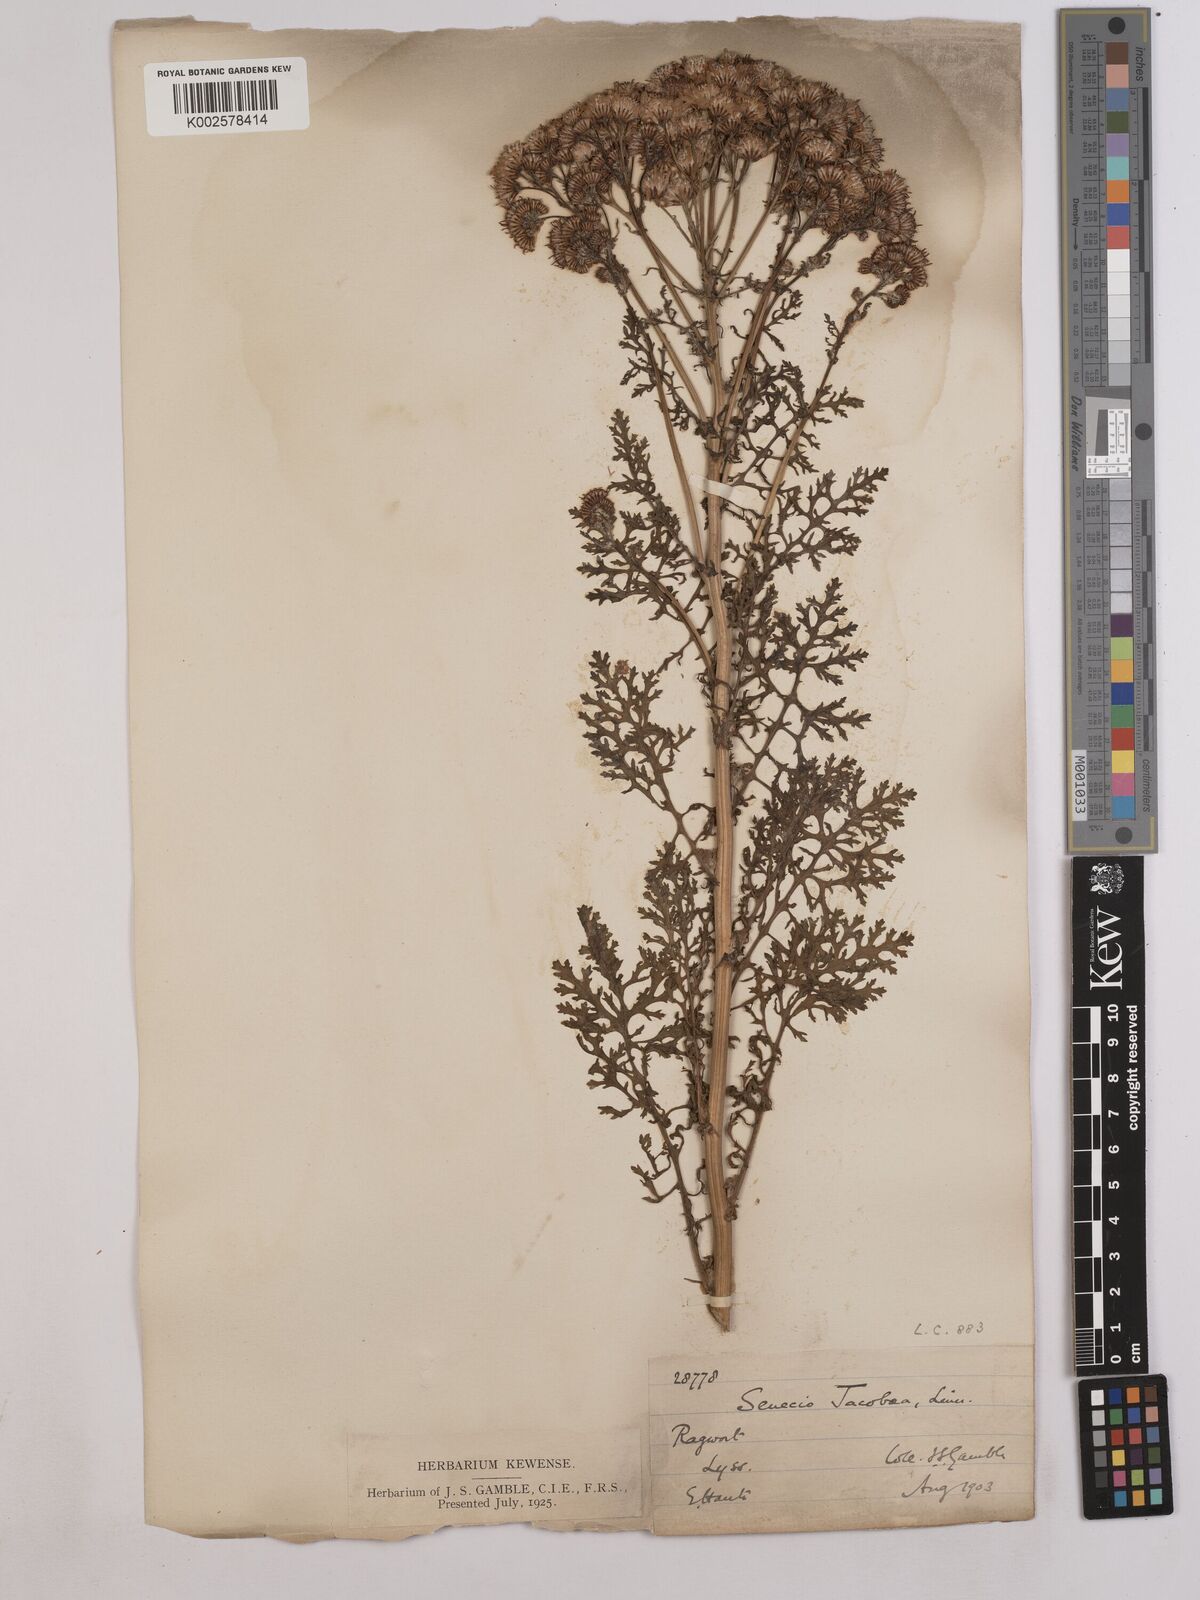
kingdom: Plantae
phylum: Tracheophyta
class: Magnoliopsida
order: Asterales
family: Asteraceae
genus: Jacobaea
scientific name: Jacobaea vulgaris
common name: Stinking willie
